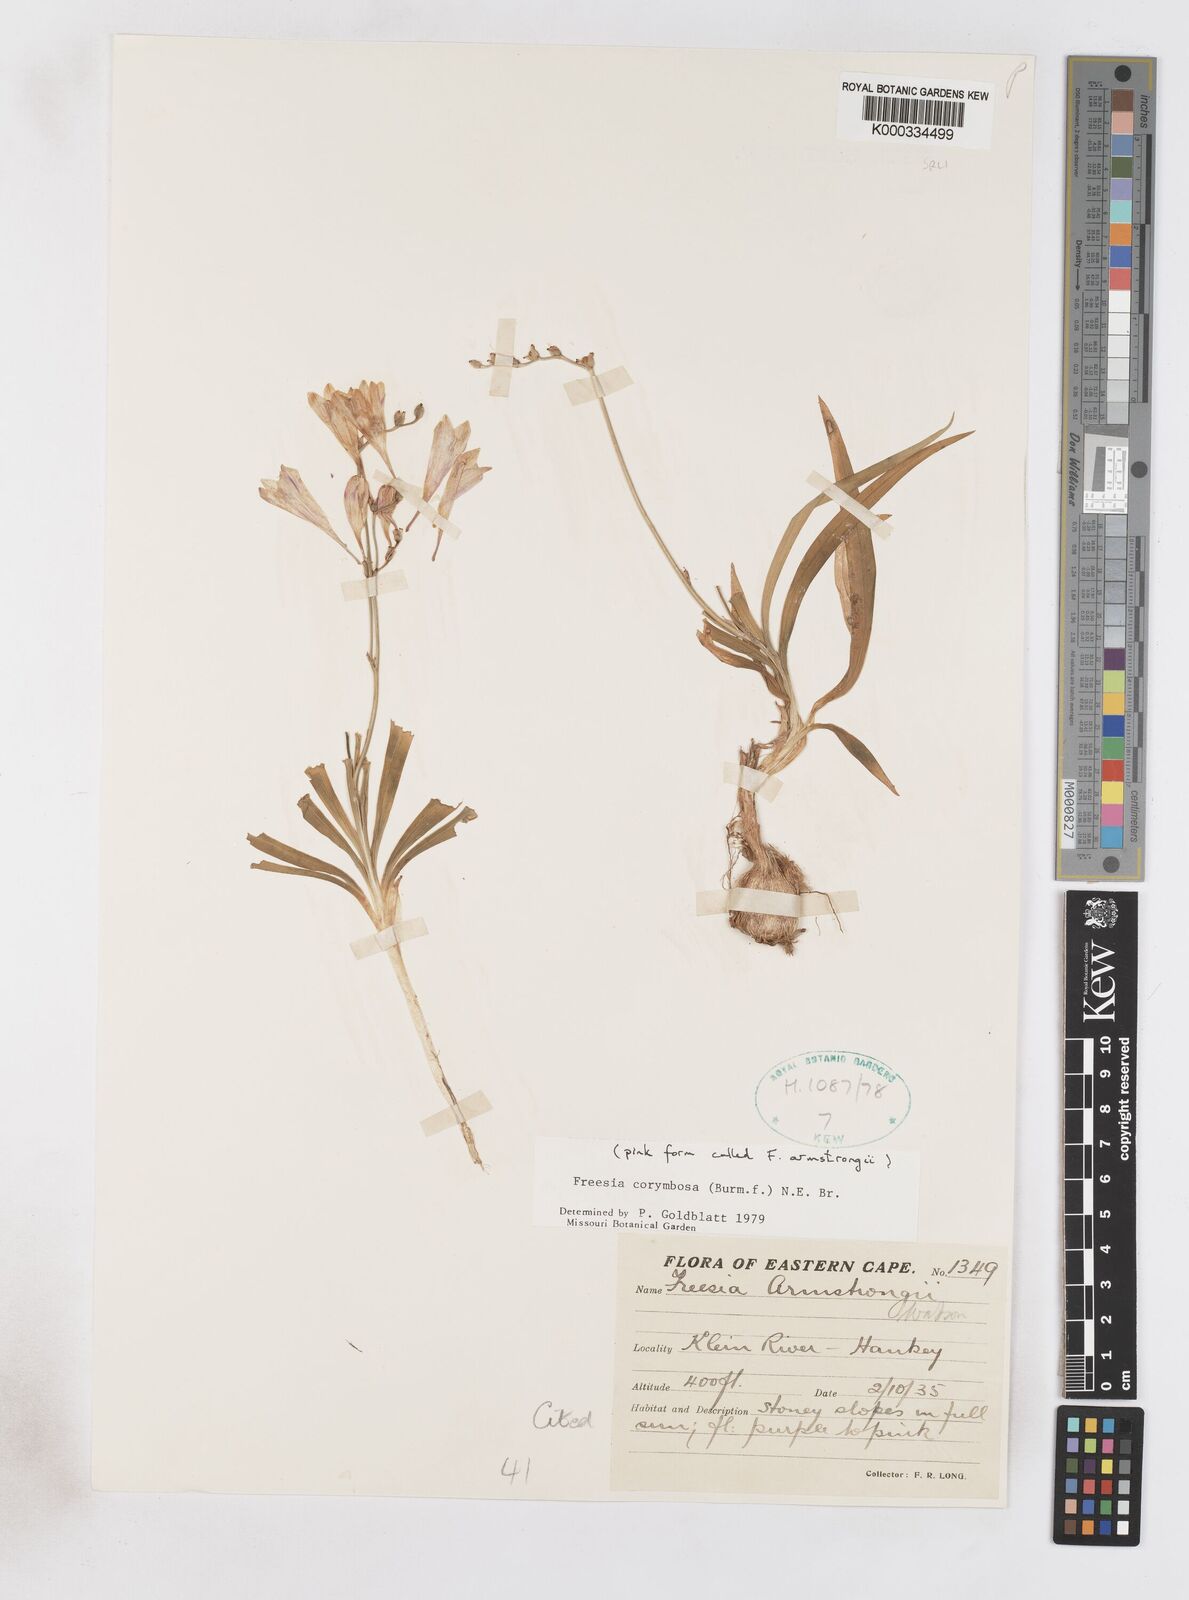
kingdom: Plantae
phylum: Tracheophyta
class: Liliopsida
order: Asparagales
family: Iridaceae
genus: Freesia
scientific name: Freesia corymbosa
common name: Common freesia
